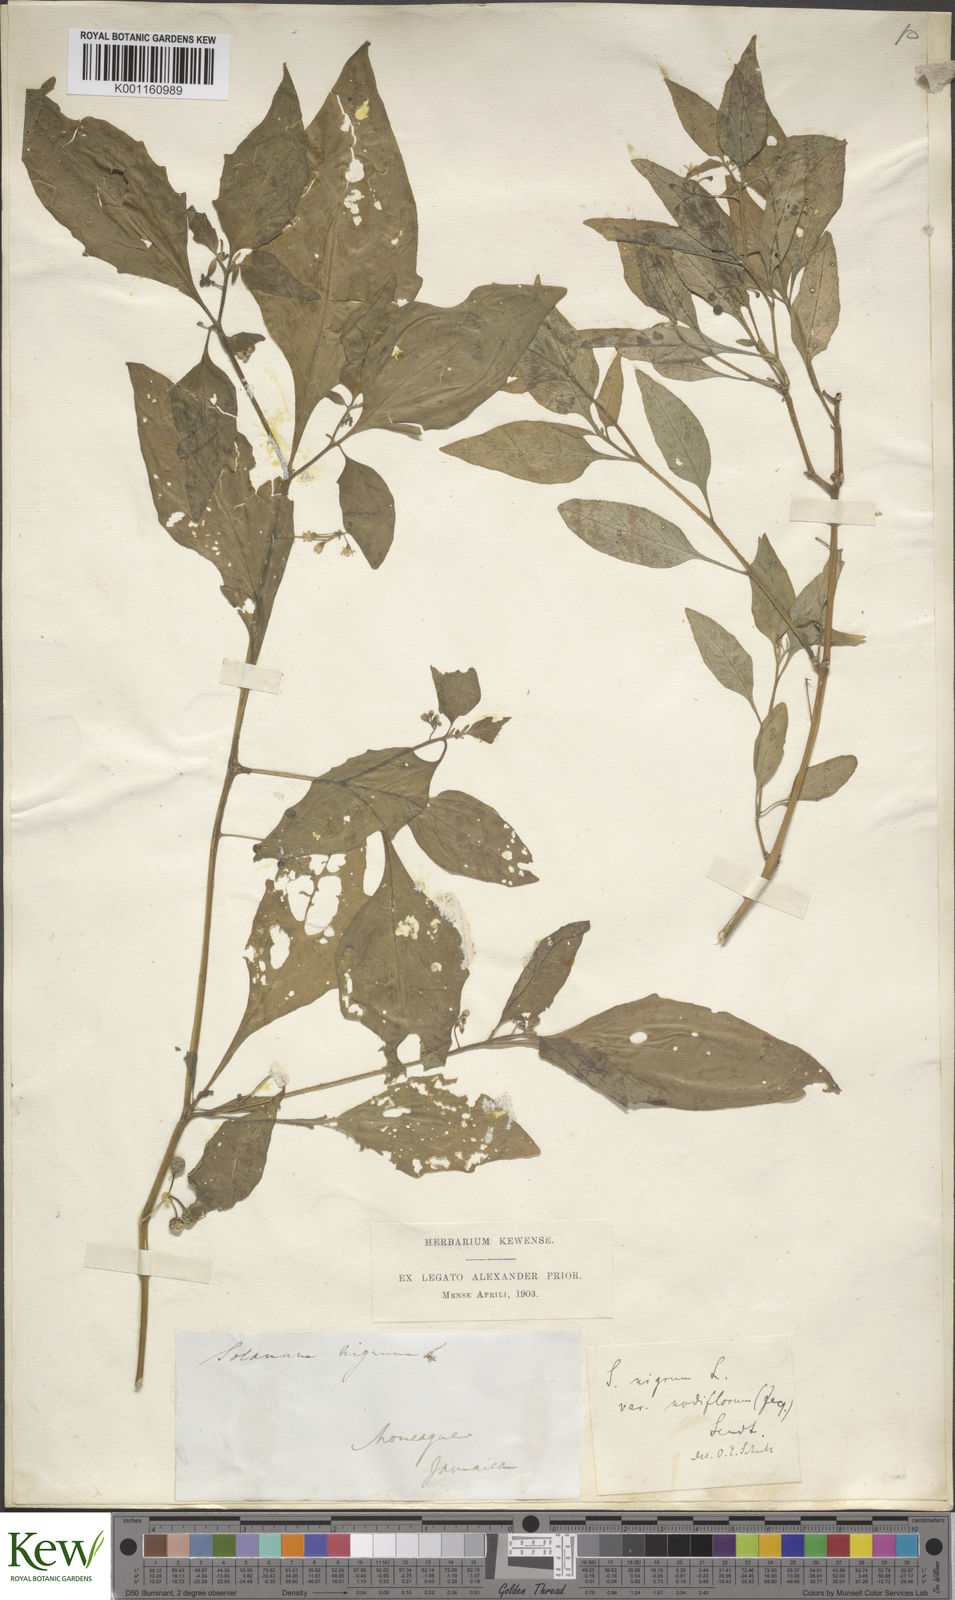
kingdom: Plantae
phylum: Tracheophyta
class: Magnoliopsida
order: Solanales
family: Solanaceae
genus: Solanum
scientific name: Solanum americanum
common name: American black nightshade
